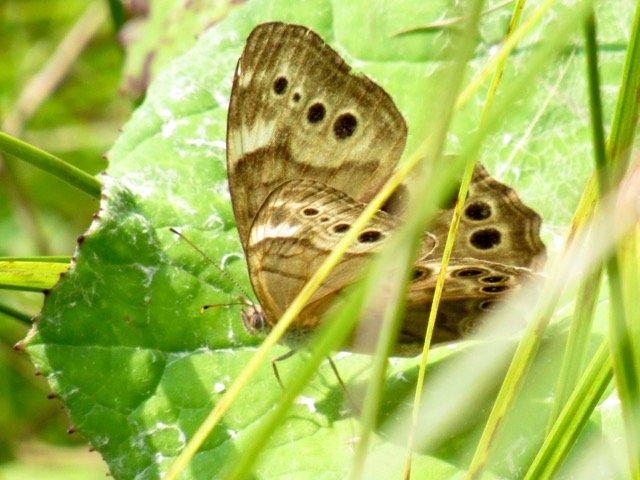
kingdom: Animalia
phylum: Arthropoda
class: Insecta
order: Lepidoptera
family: Nymphalidae
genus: Lethe
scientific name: Lethe anthedon
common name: Northern Pearly-Eye
